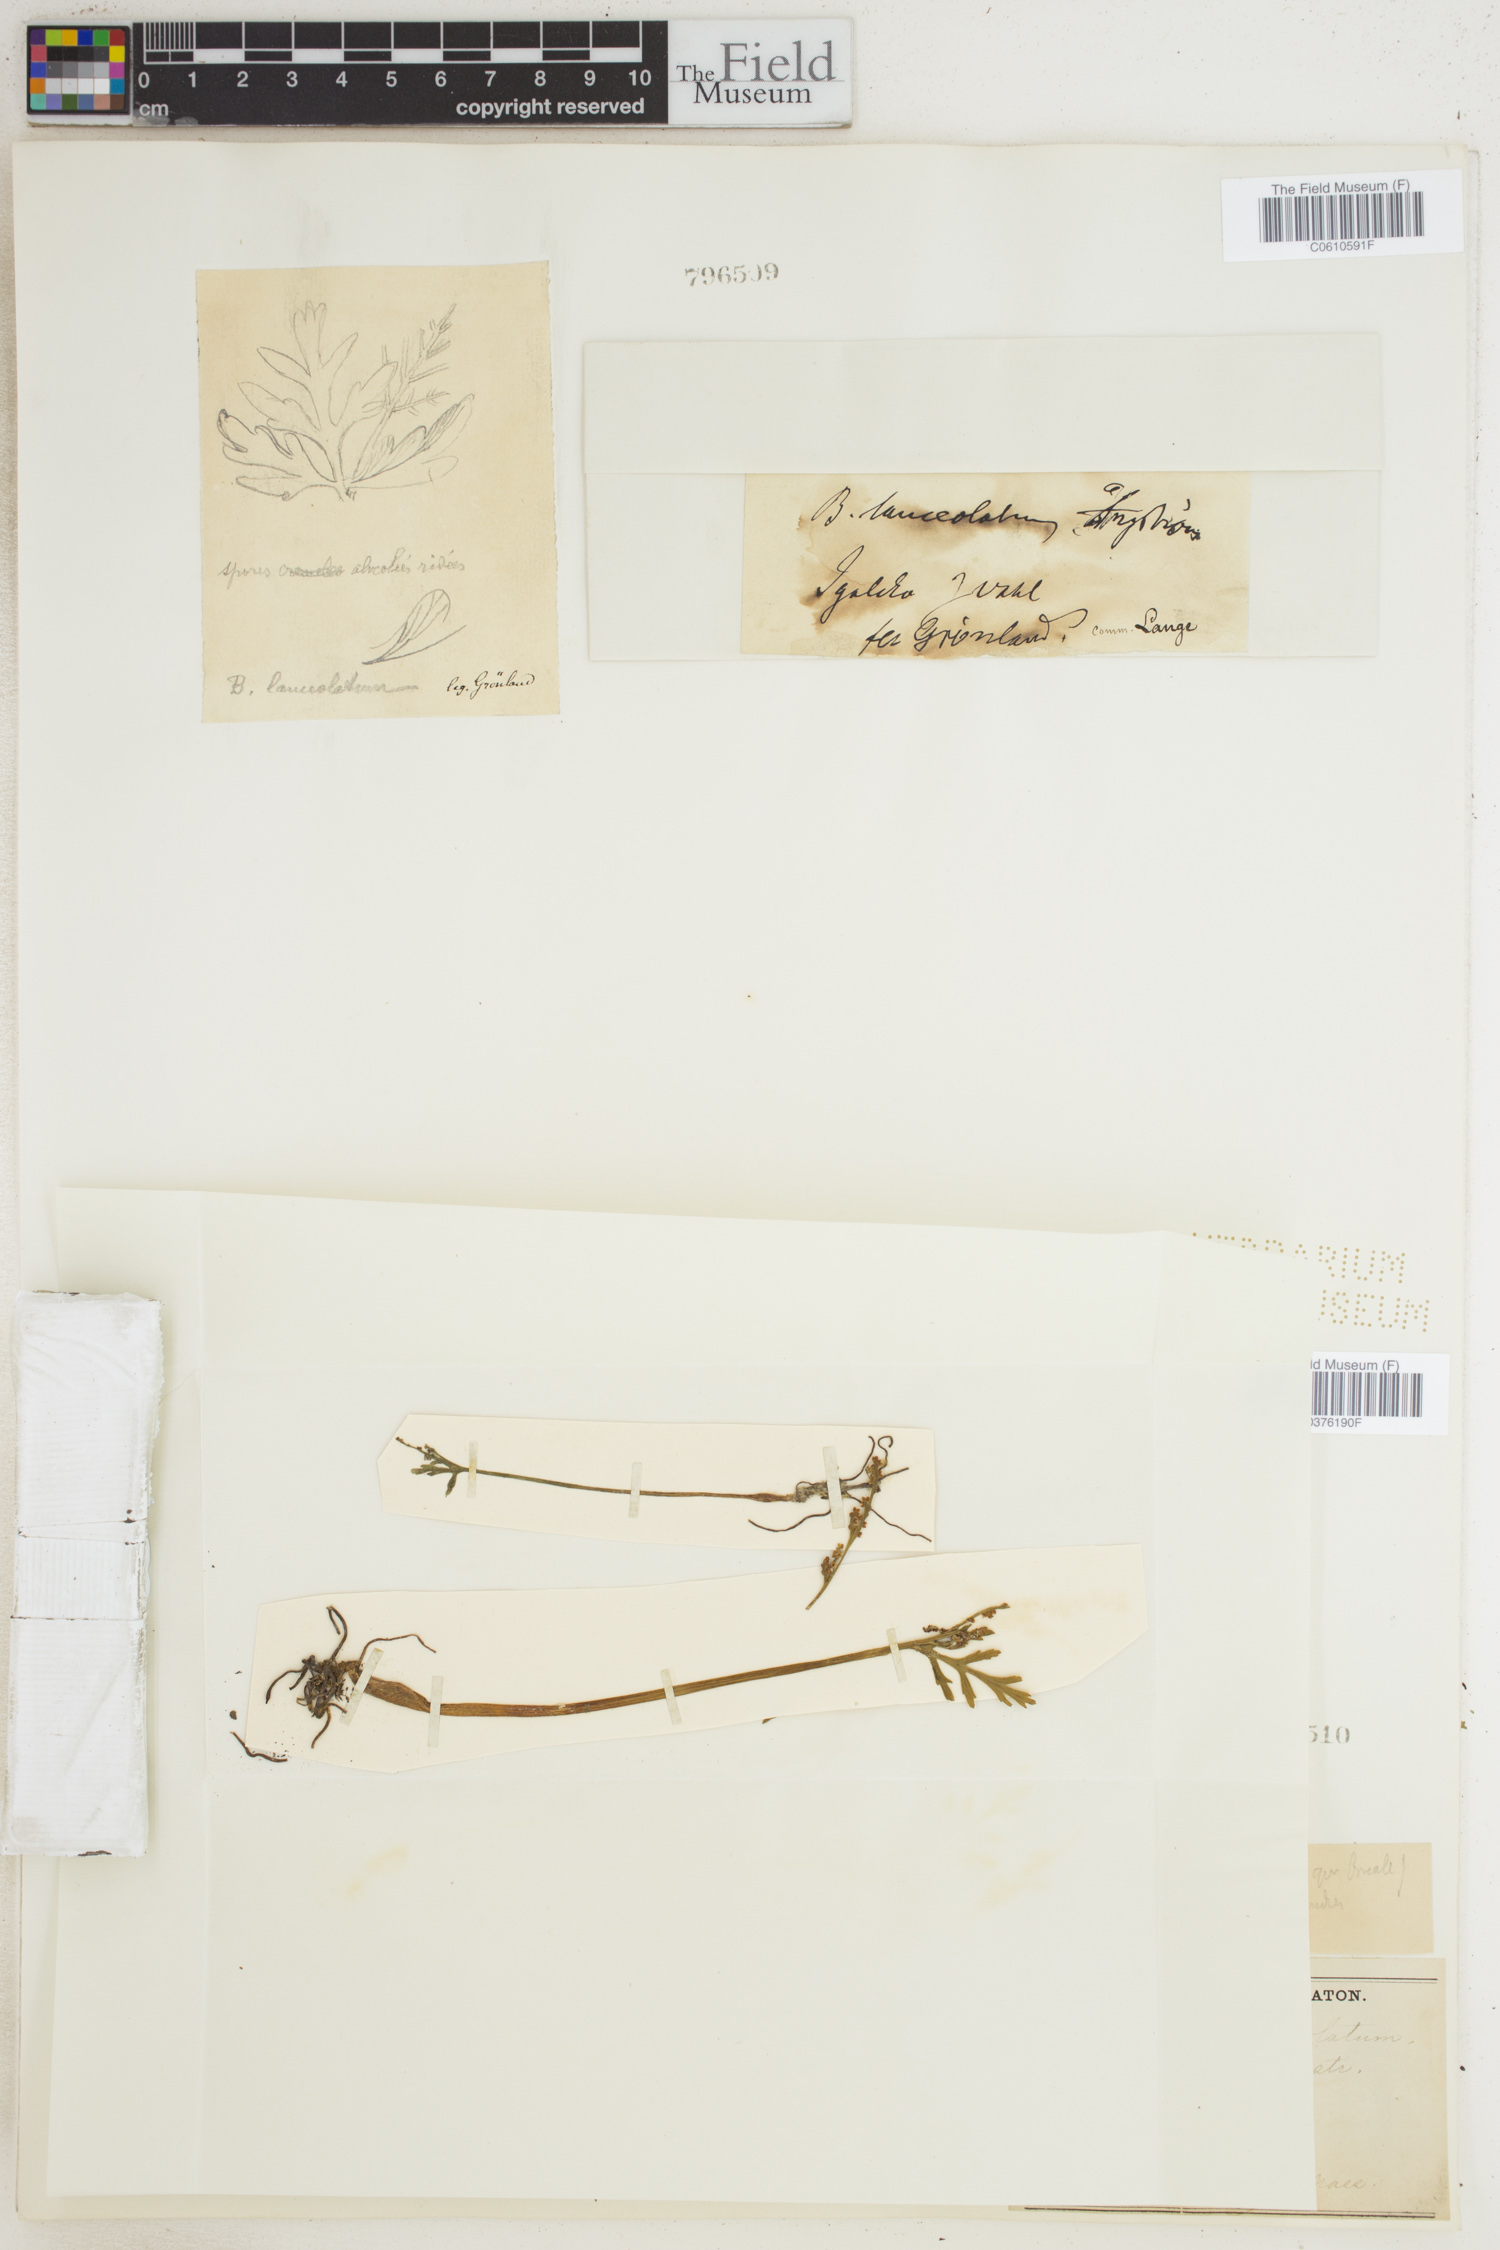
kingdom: Plantae
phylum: Tracheophyta
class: Polypodiopsida
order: Ophioglossales
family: Ophioglossaceae
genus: Botrychium
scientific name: Botrychium lanceolatum
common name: Lance-leaved moonwort
